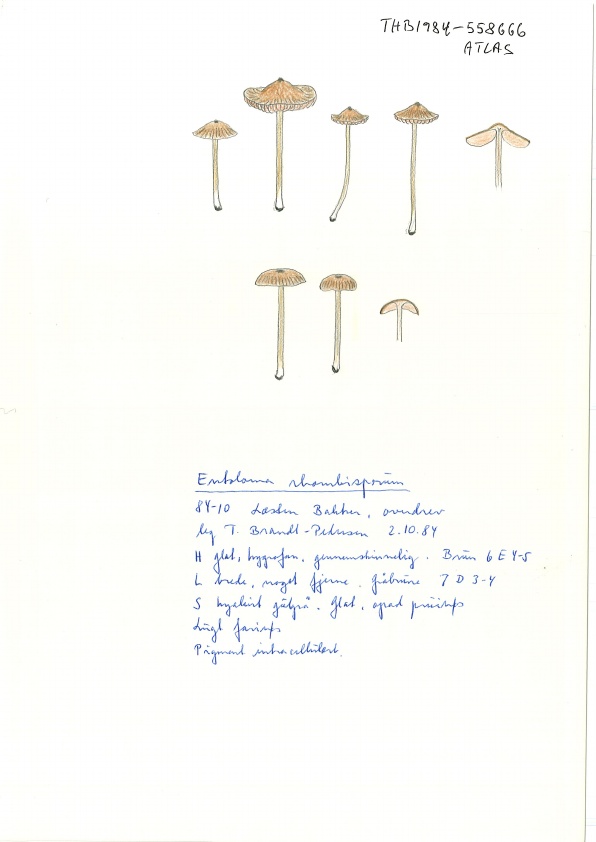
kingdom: Fungi
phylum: Basidiomycota
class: Agaricomycetes
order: Agaricales
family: Entolomataceae
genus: Entoloma
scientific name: Entoloma
